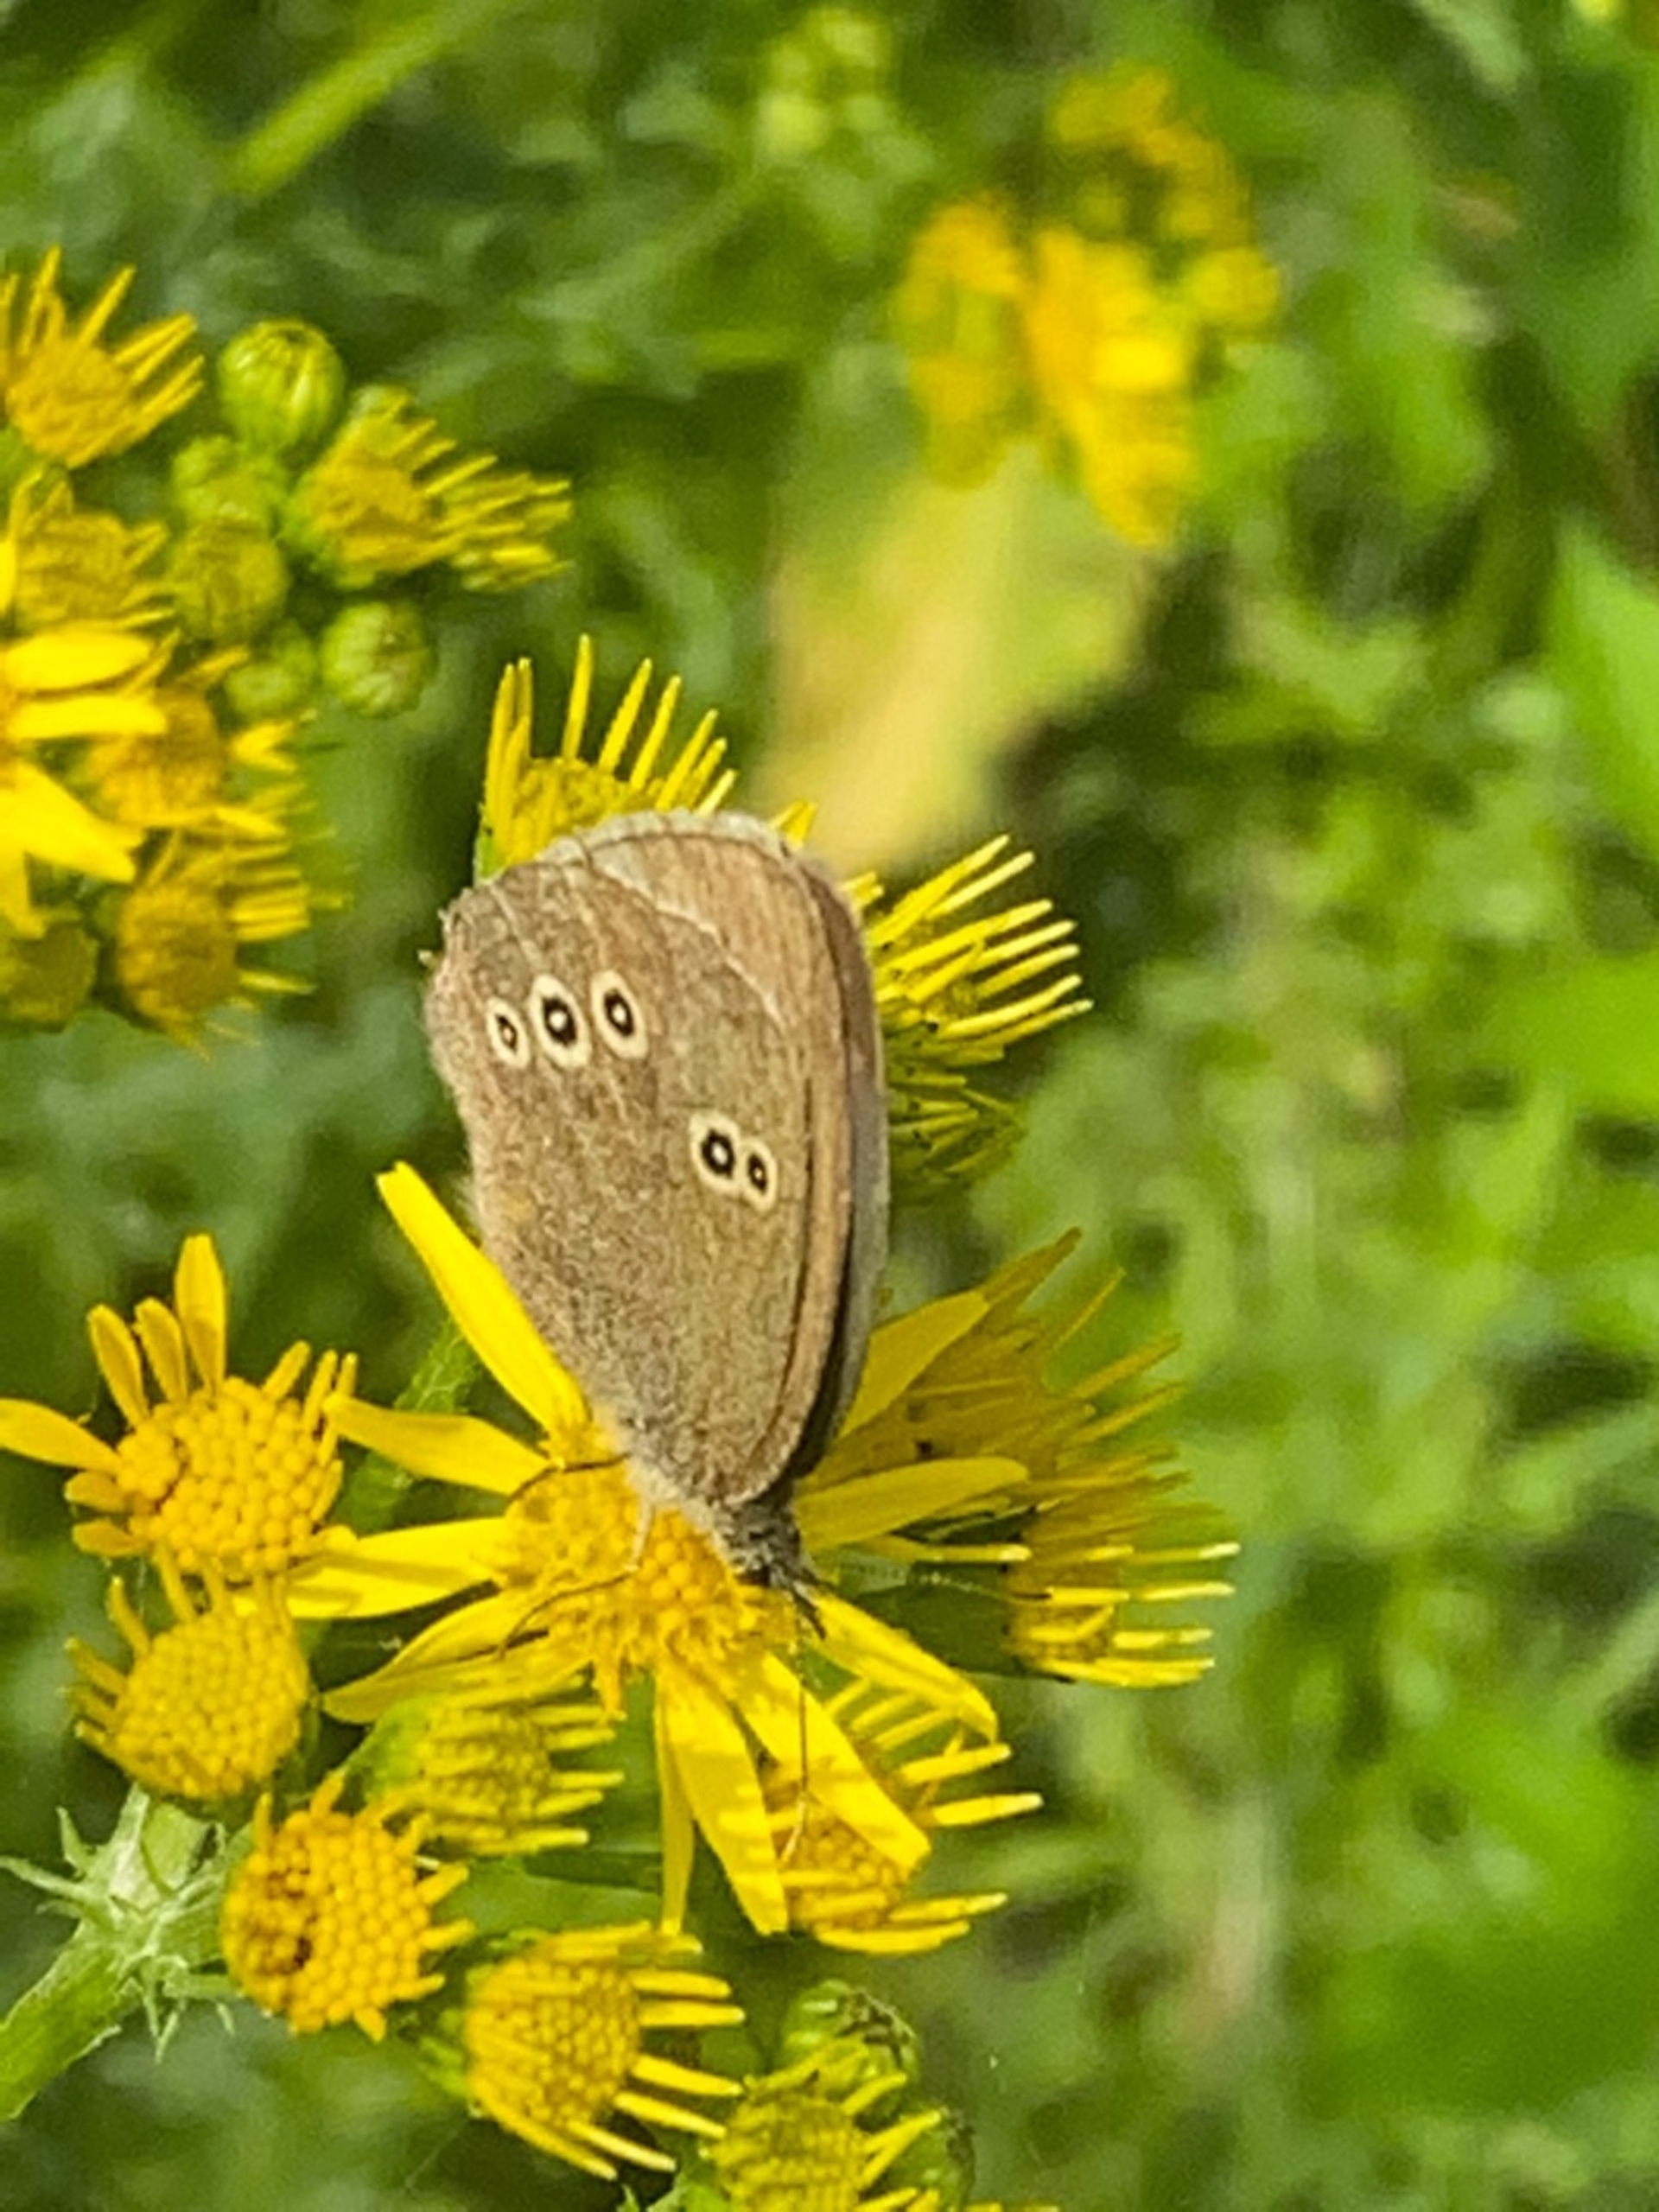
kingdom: Animalia
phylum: Arthropoda
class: Insecta
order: Lepidoptera
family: Nymphalidae
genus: Aphantopus
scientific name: Aphantopus hyperantus
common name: Engrandøje
